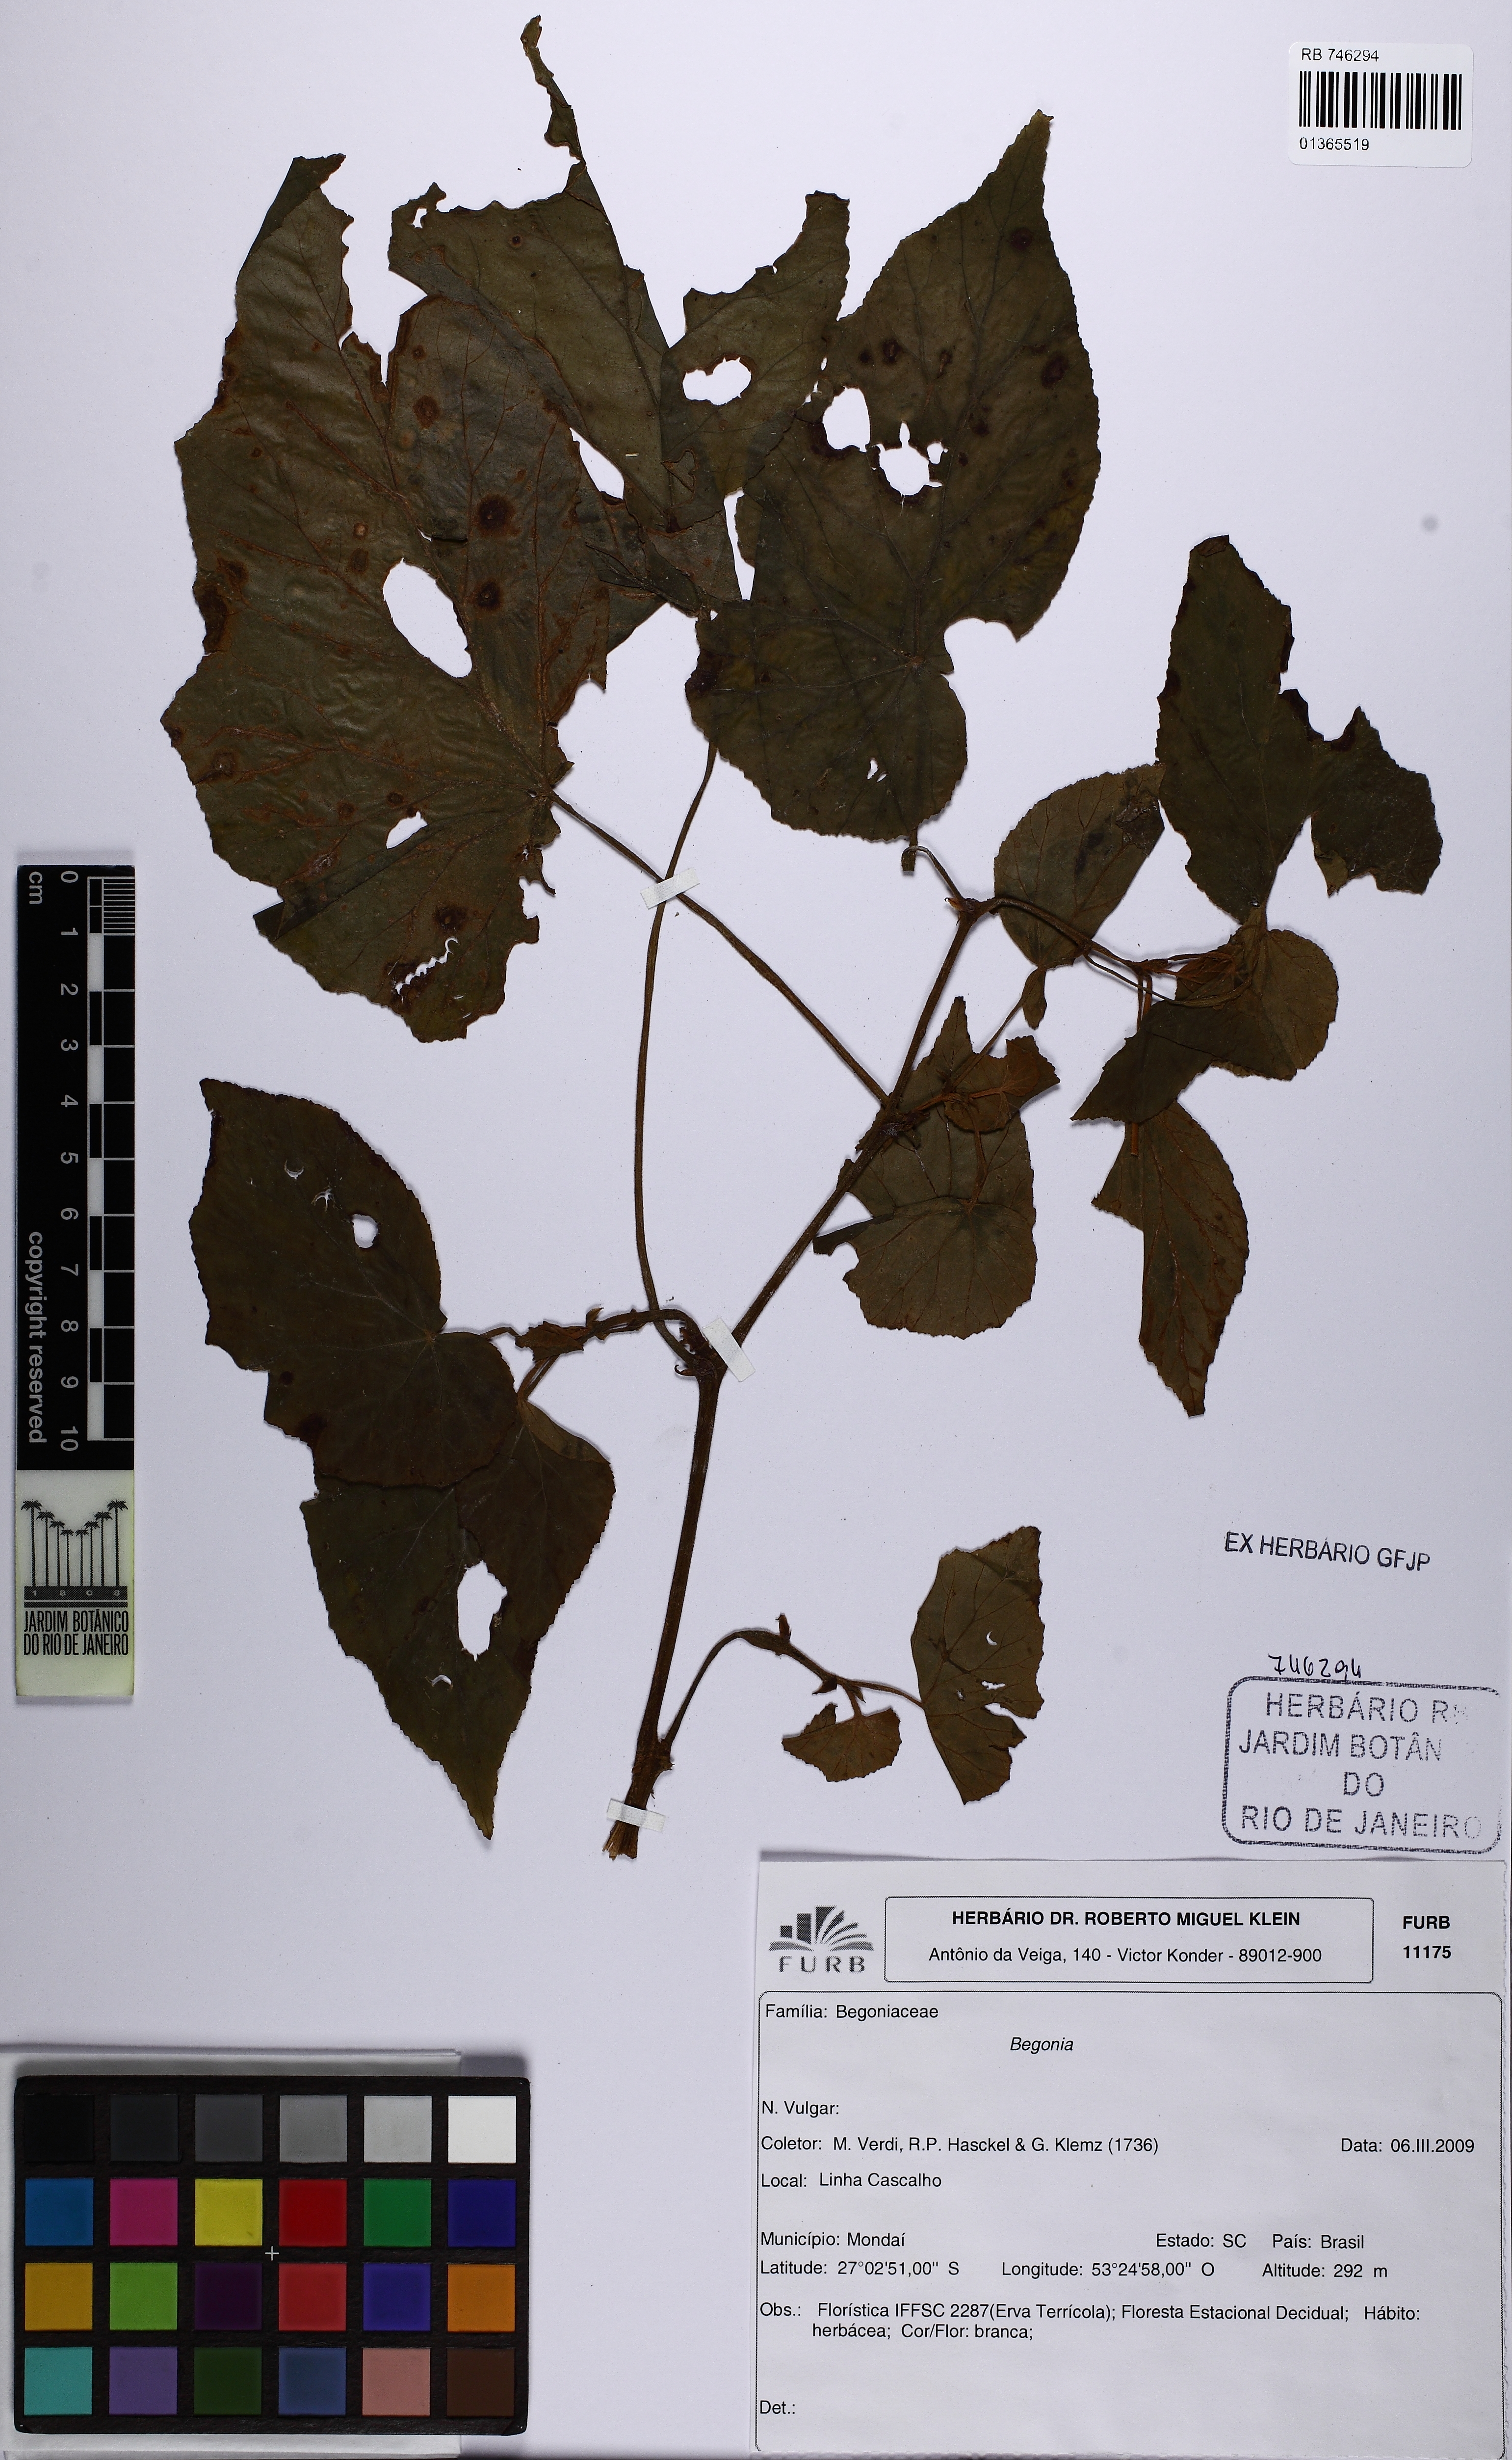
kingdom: Plantae
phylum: Tracheophyta
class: Magnoliopsida
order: Cucurbitales
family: Begoniaceae
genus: Begonia
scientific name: Begonia hammoniae
